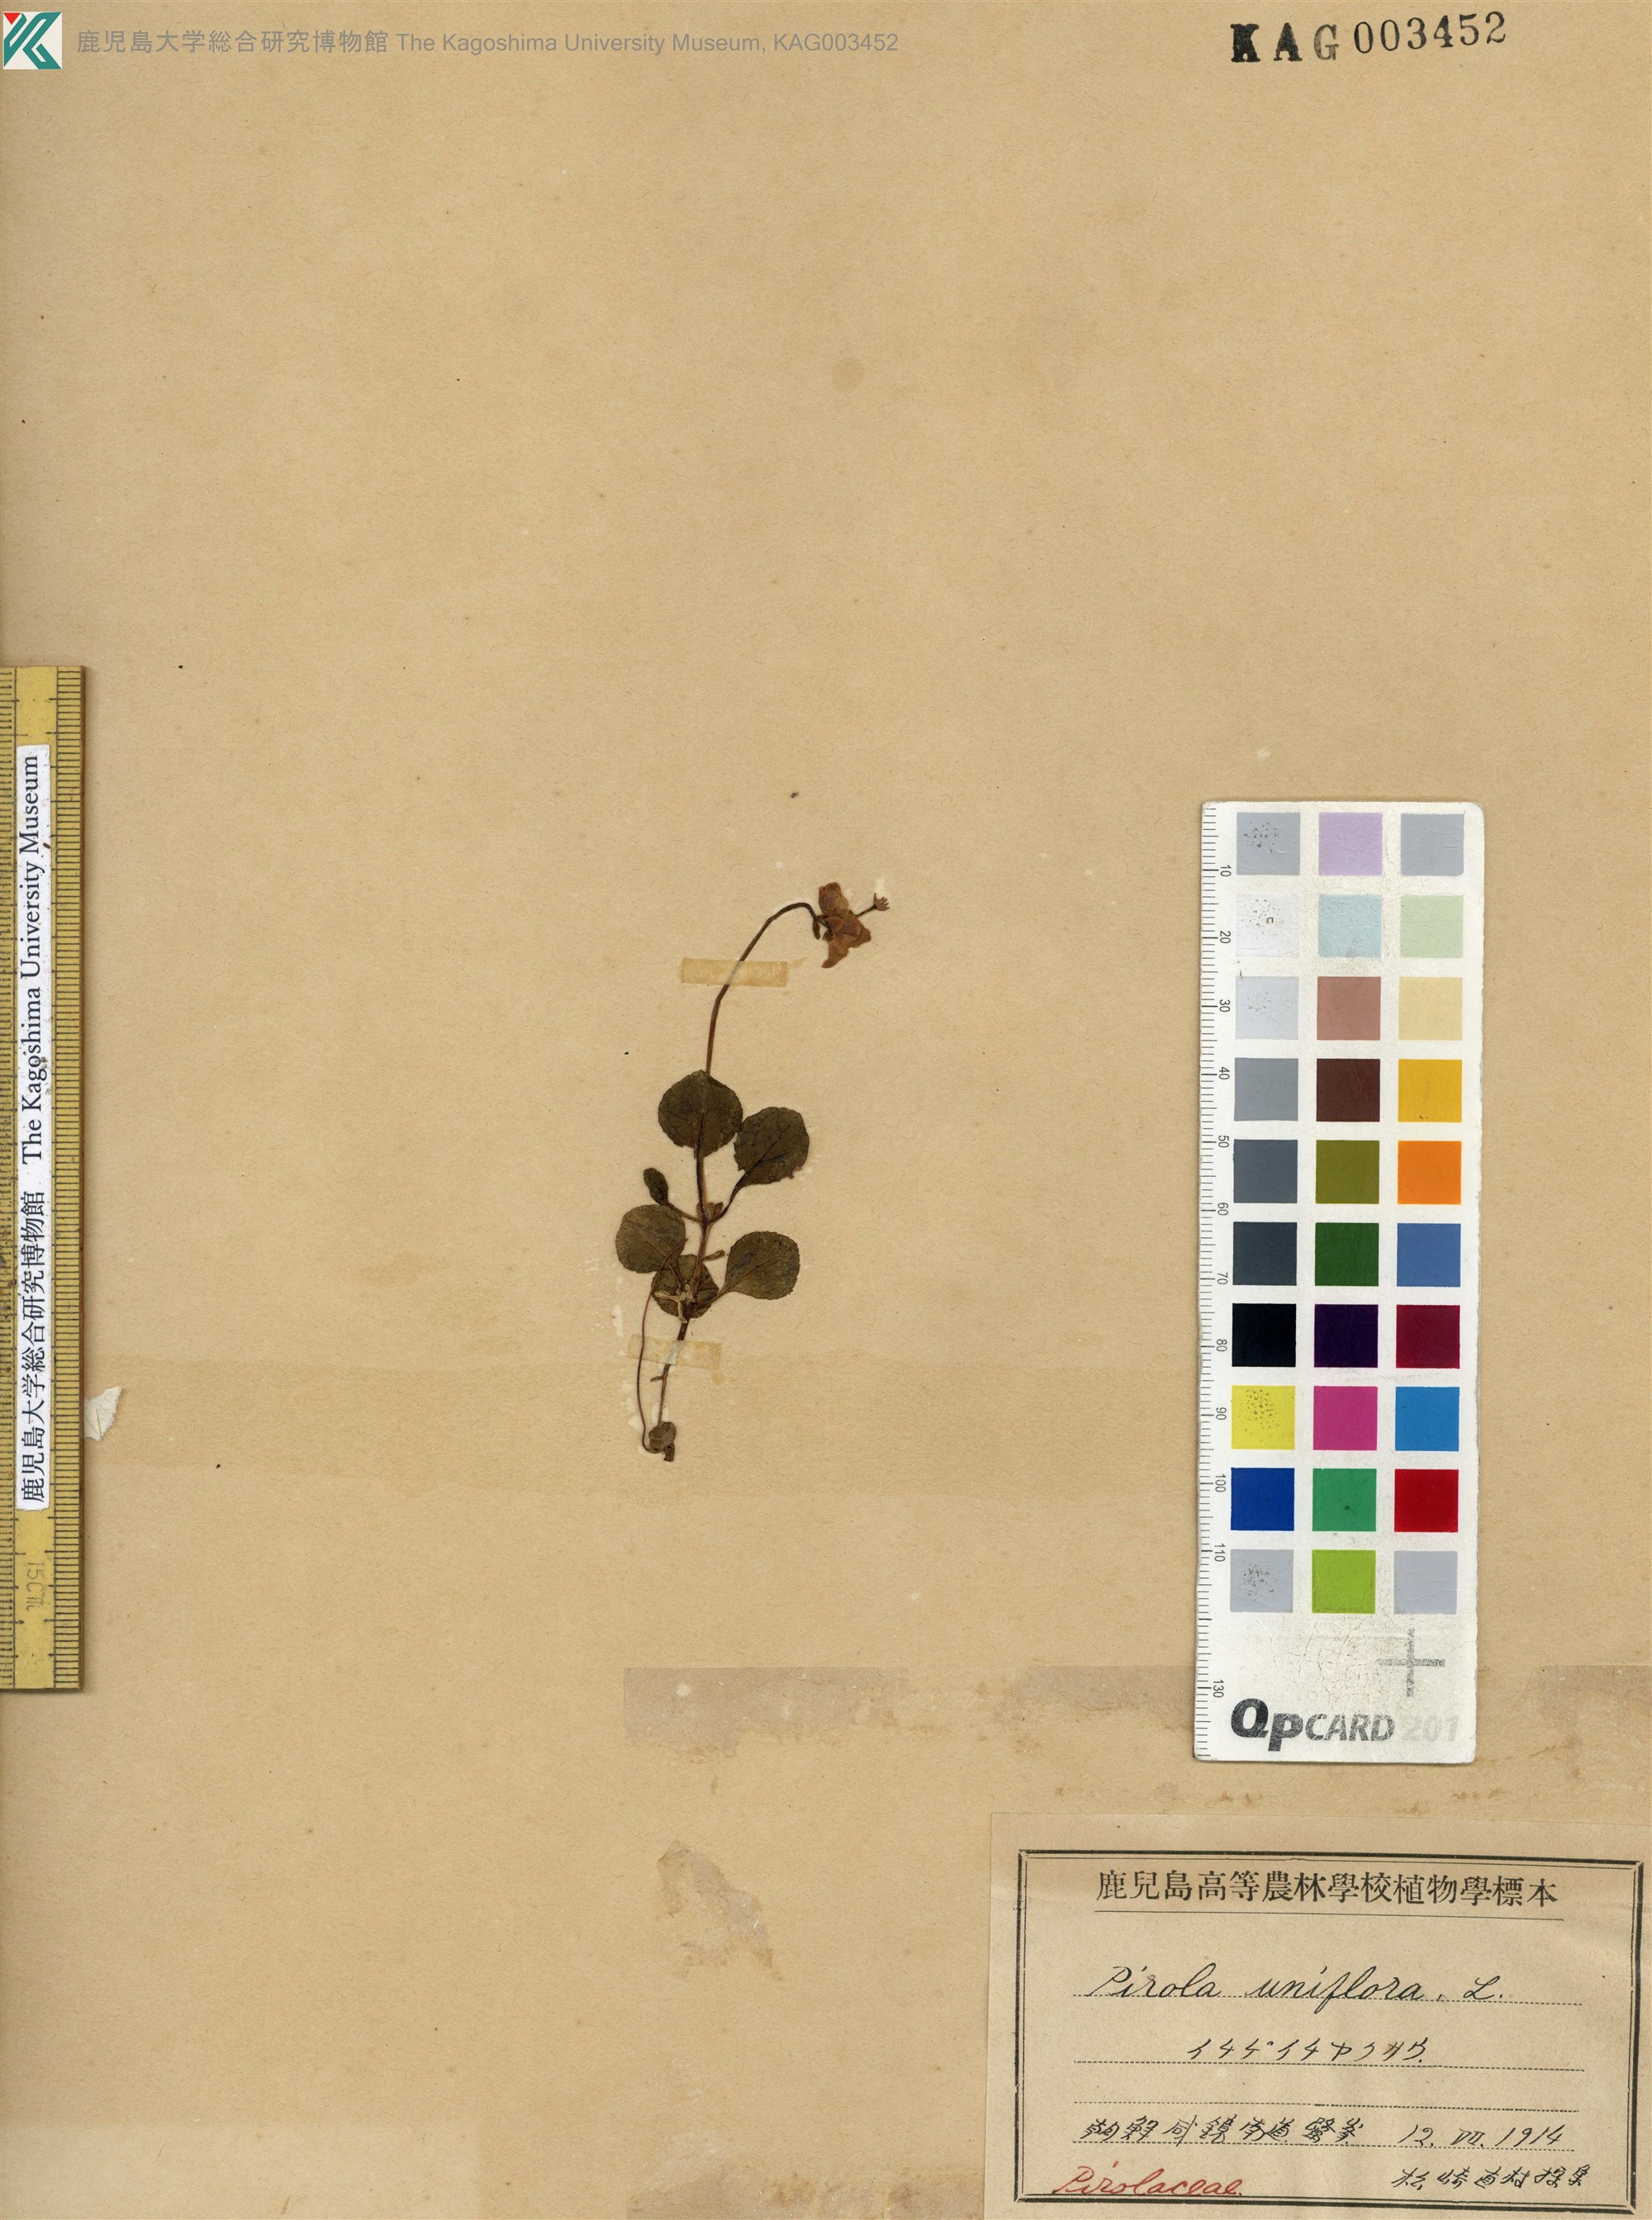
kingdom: Plantae
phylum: Tracheophyta
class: Magnoliopsida
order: Ericales
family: Ericaceae
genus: Moneses
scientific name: Moneses uniflora
